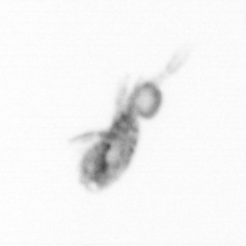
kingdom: Animalia
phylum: Arthropoda
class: Copepoda
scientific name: Copepoda
